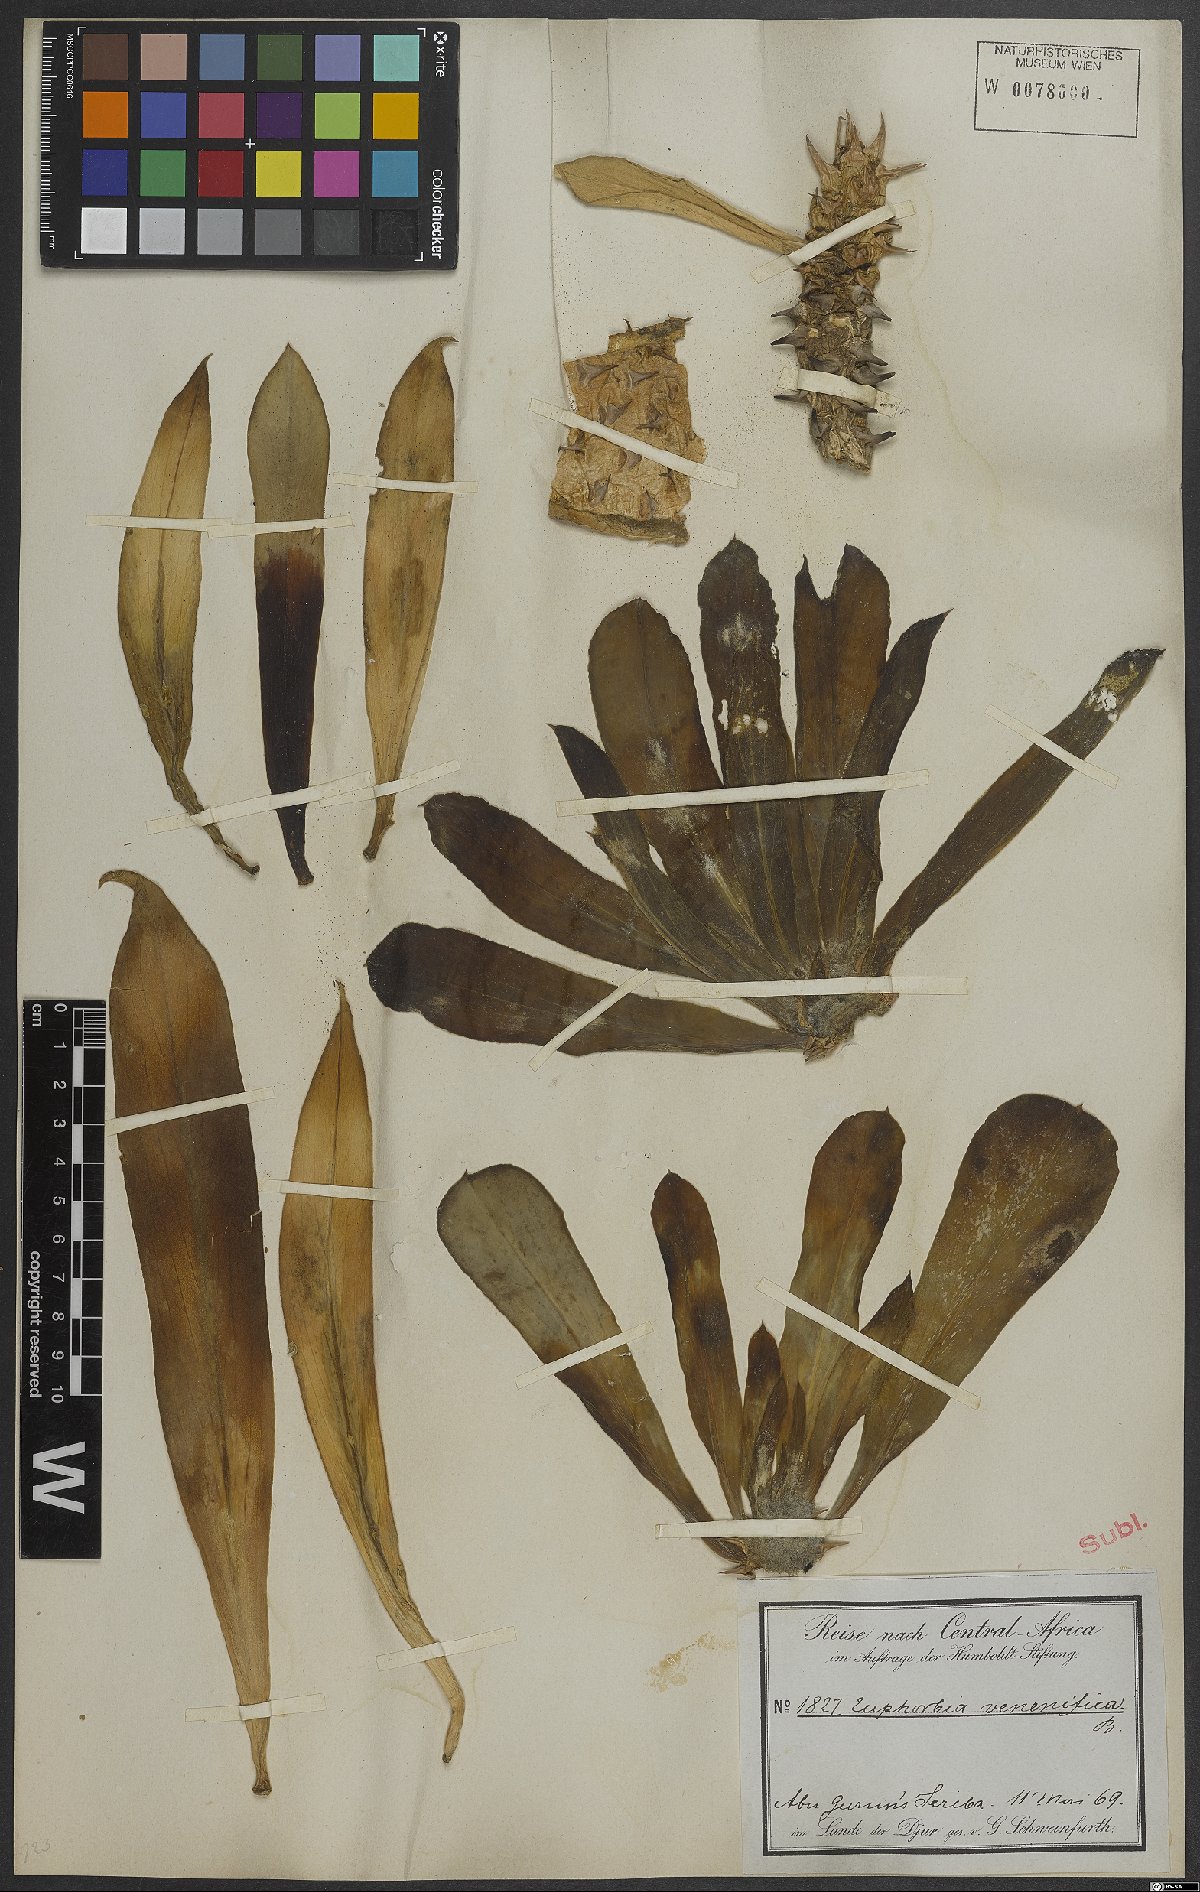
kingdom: Plantae
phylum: Tracheophyta
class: Magnoliopsida
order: Malpighiales
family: Euphorbiaceae
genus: Euphorbia
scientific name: Euphorbia
